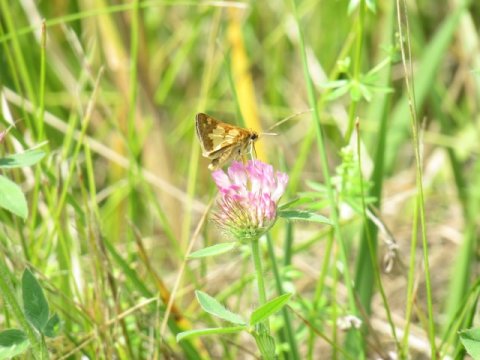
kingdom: Animalia
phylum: Arthropoda
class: Insecta
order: Lepidoptera
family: Hesperiidae
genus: Polites
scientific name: Polites coras
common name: Peck's Skipper
